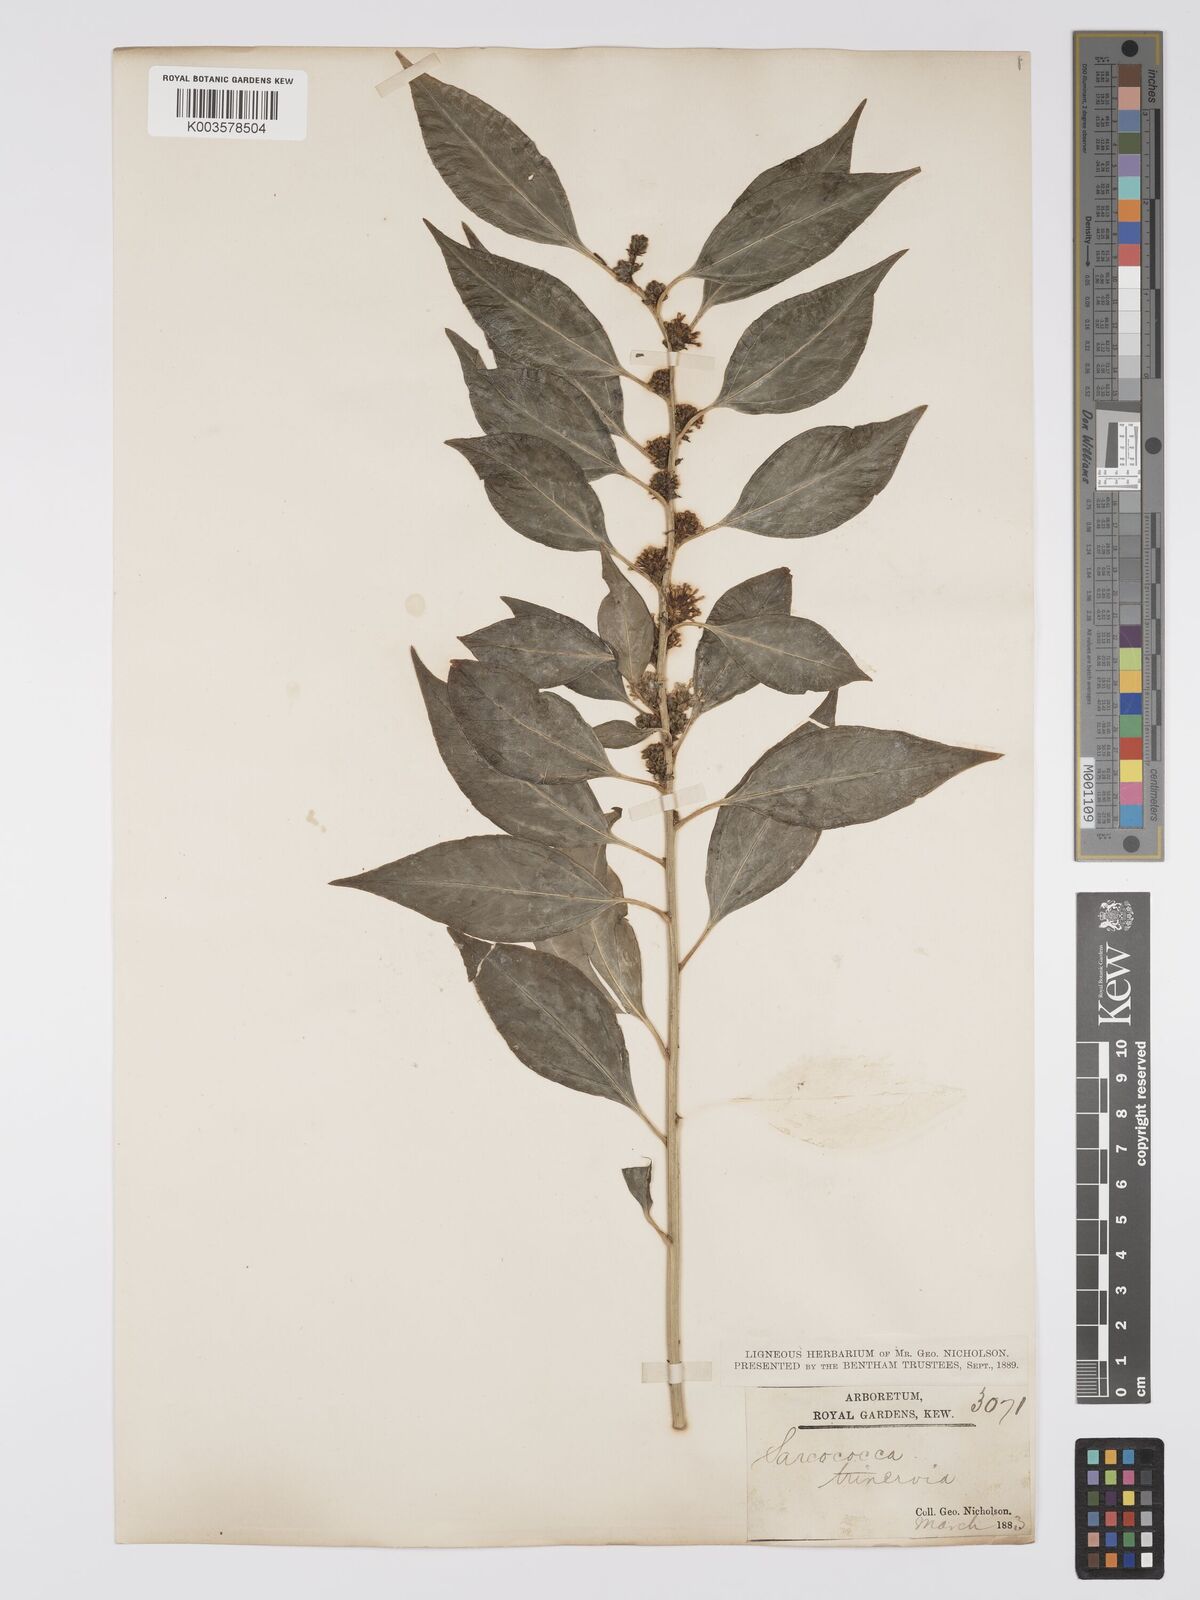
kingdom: Plantae
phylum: Tracheophyta
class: Magnoliopsida
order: Buxales
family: Buxaceae
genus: Sarcococca
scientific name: Sarcococca coriacea
